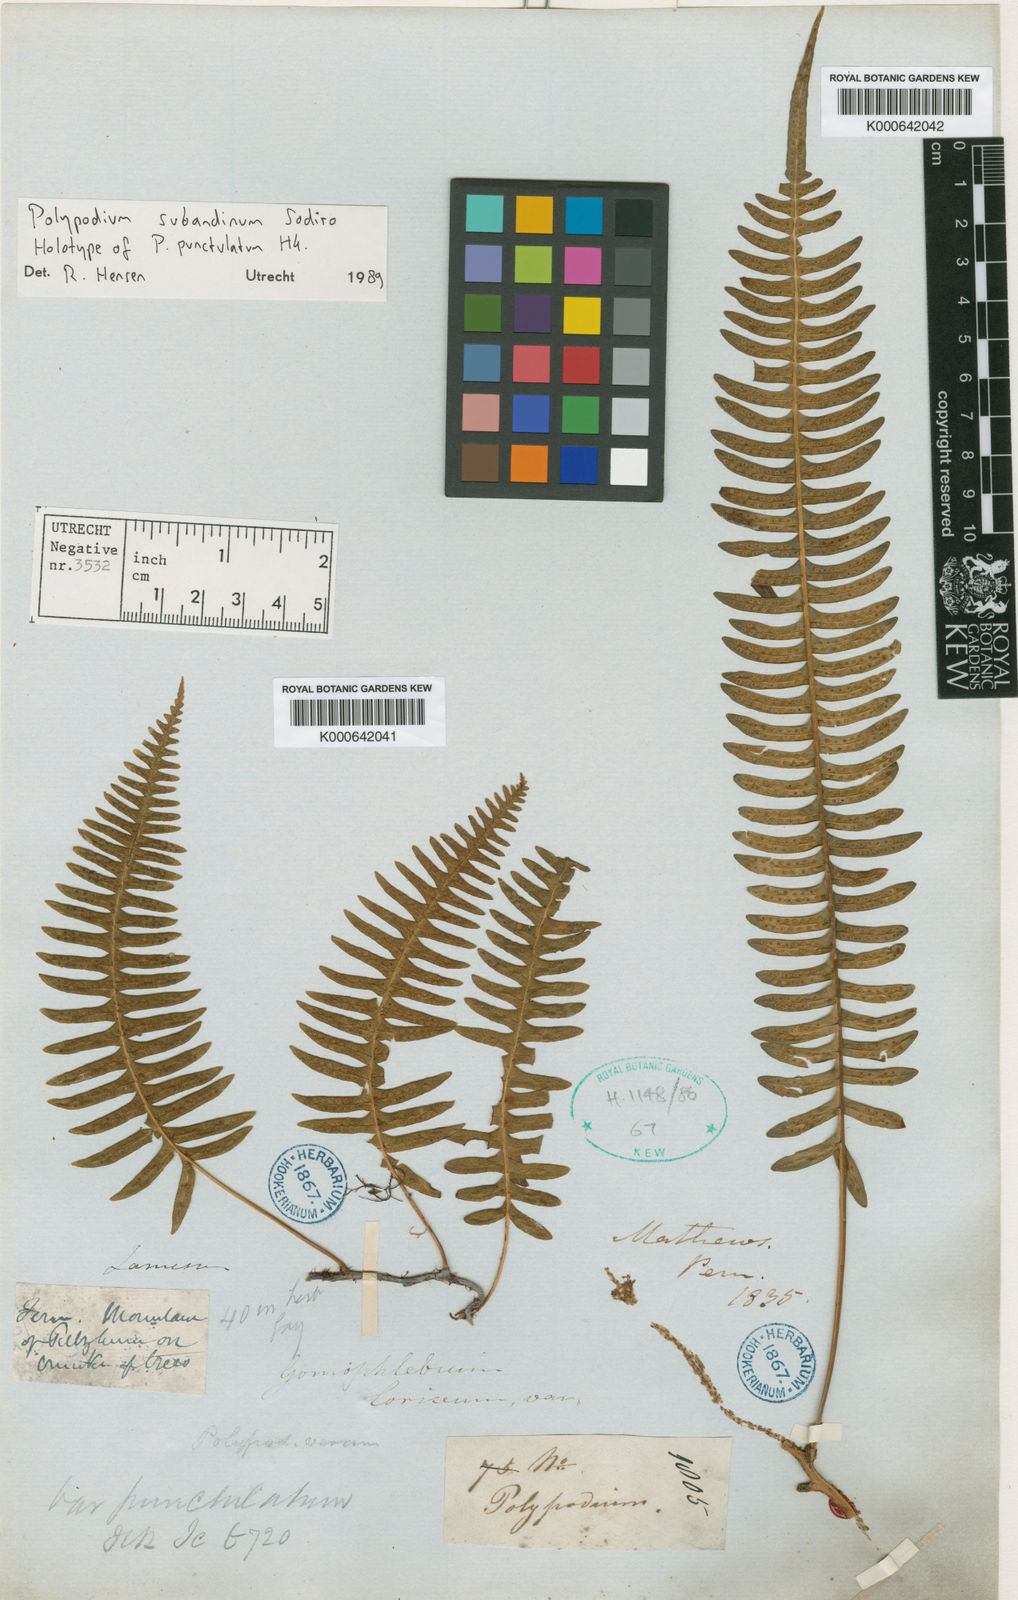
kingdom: Plantae
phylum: Tracheophyta
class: Polypodiopsida
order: Polypodiales
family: Polypodiaceae
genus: Serpocaulon
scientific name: Serpocaulon subandinum
